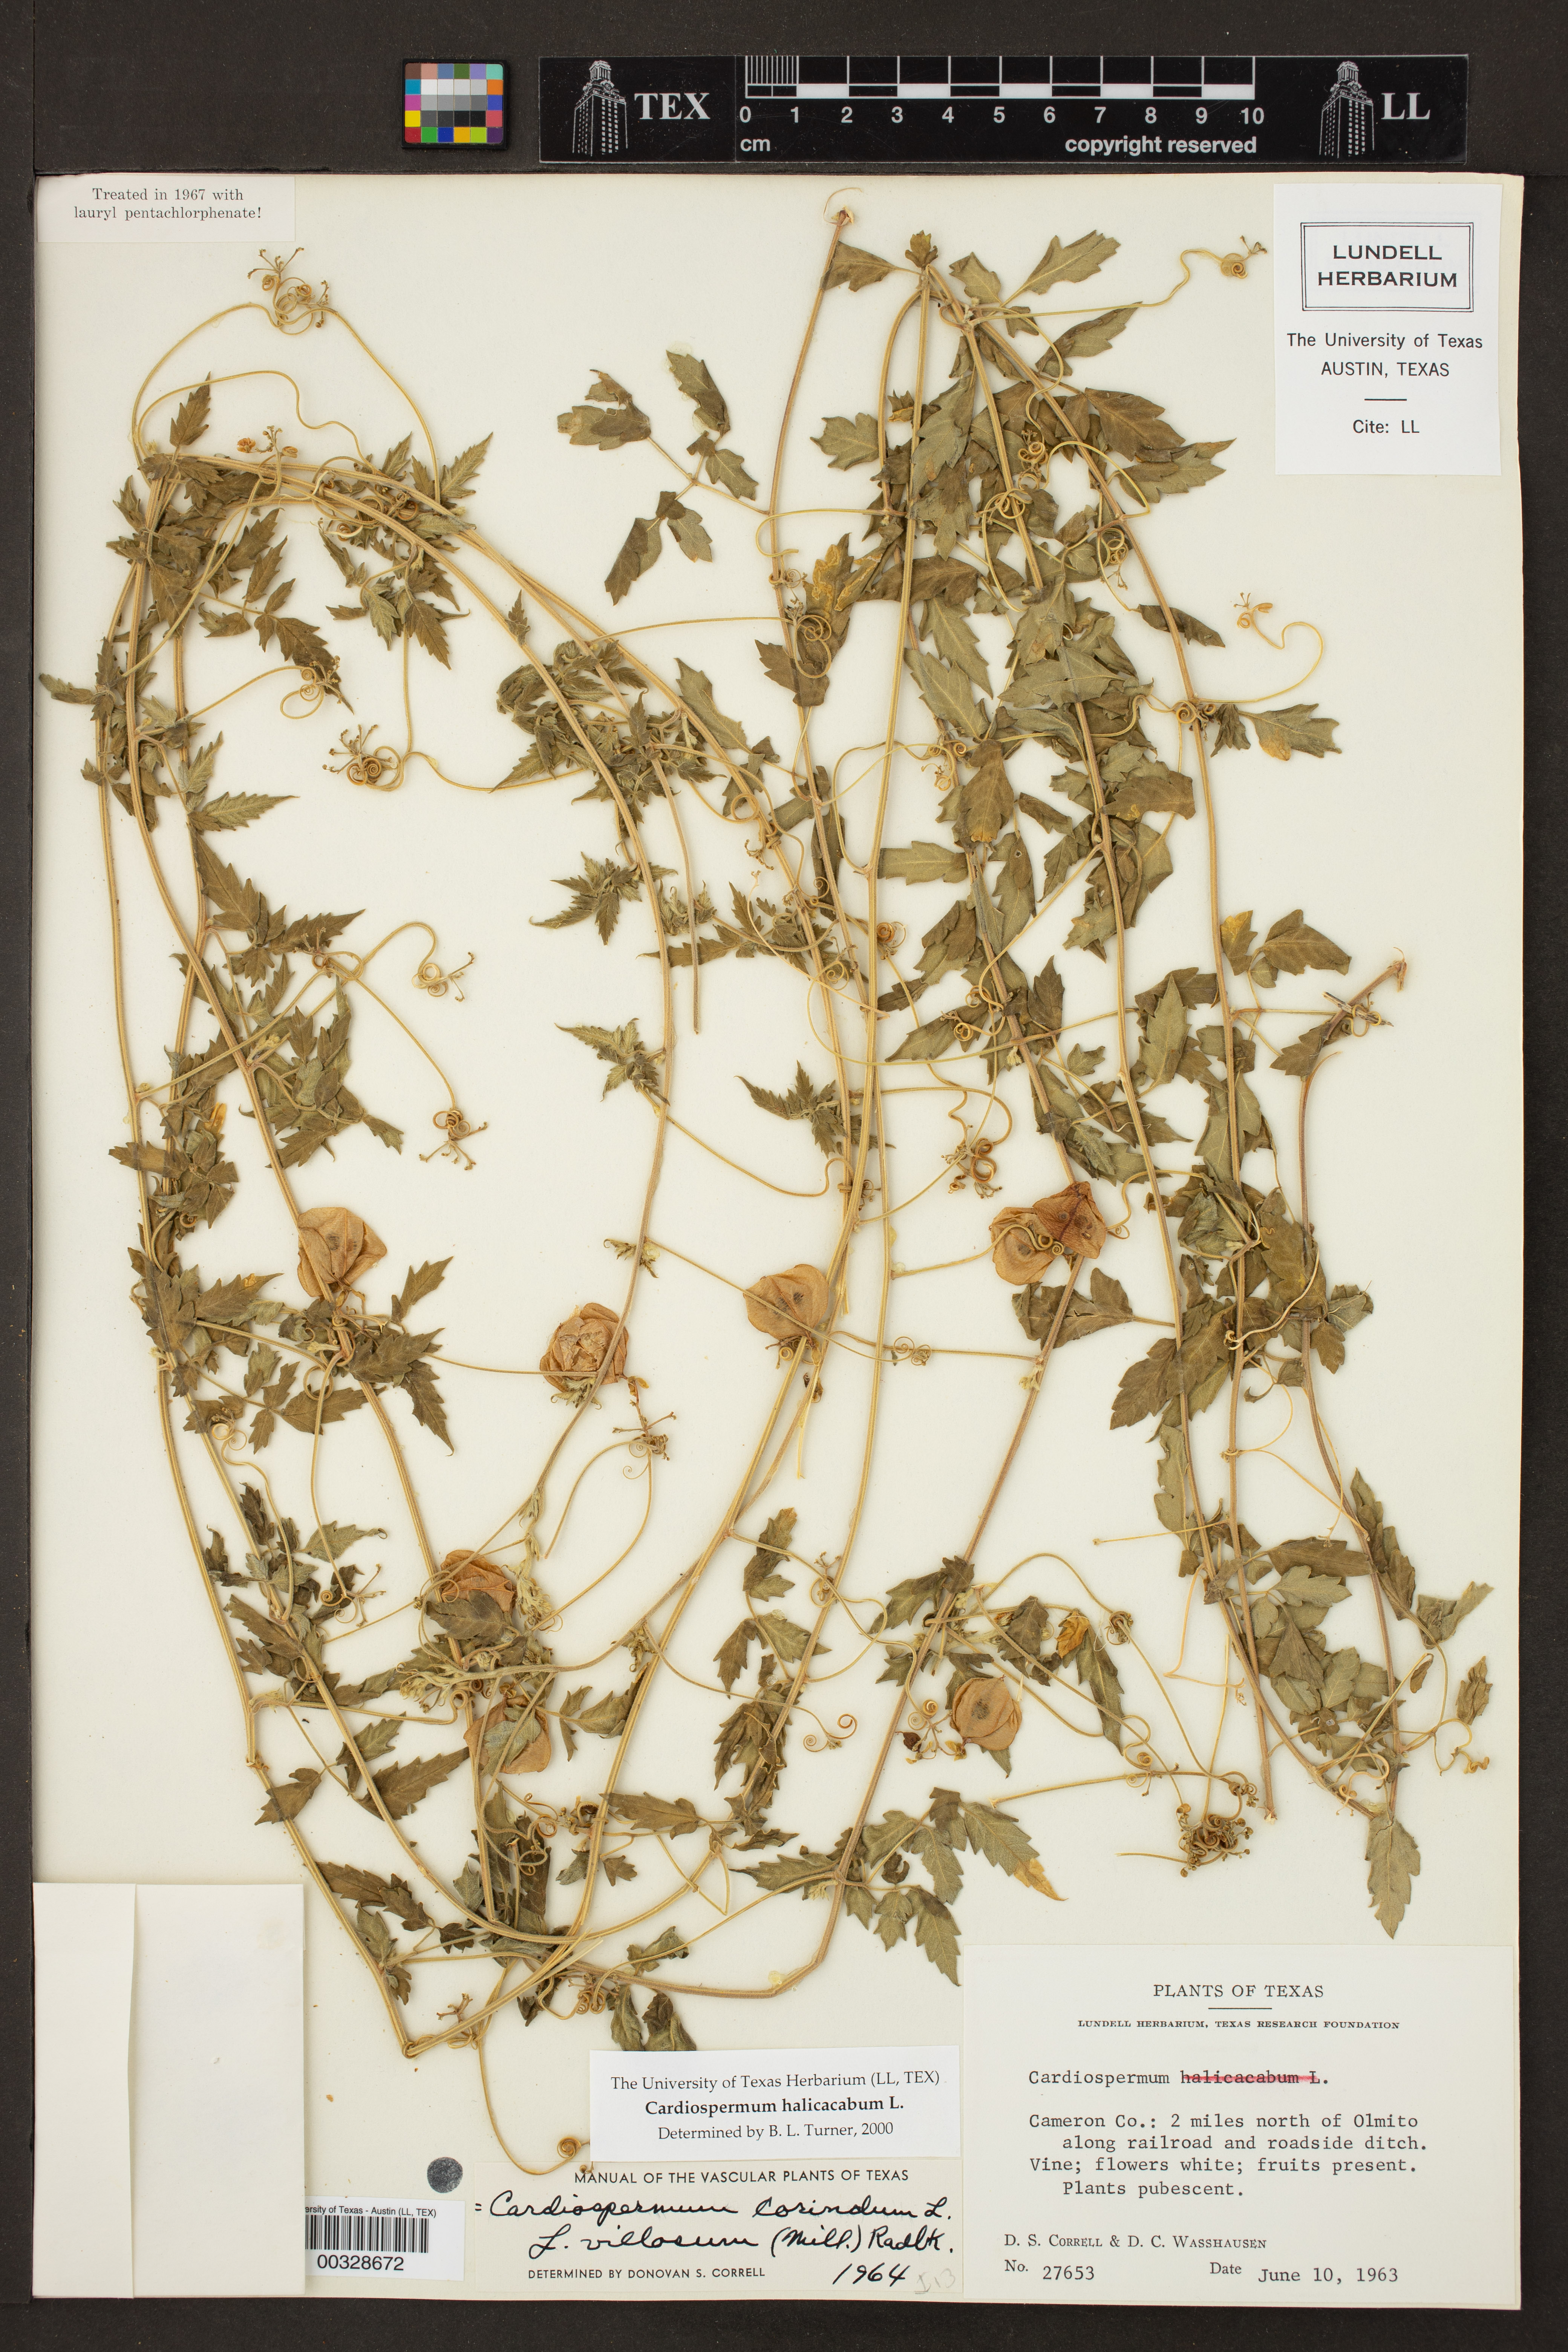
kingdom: Plantae
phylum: Tracheophyta
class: Magnoliopsida
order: Sapindales
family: Sapindaceae
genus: Cardiospermum
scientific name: Cardiospermum halicacabum
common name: Balloon vine
